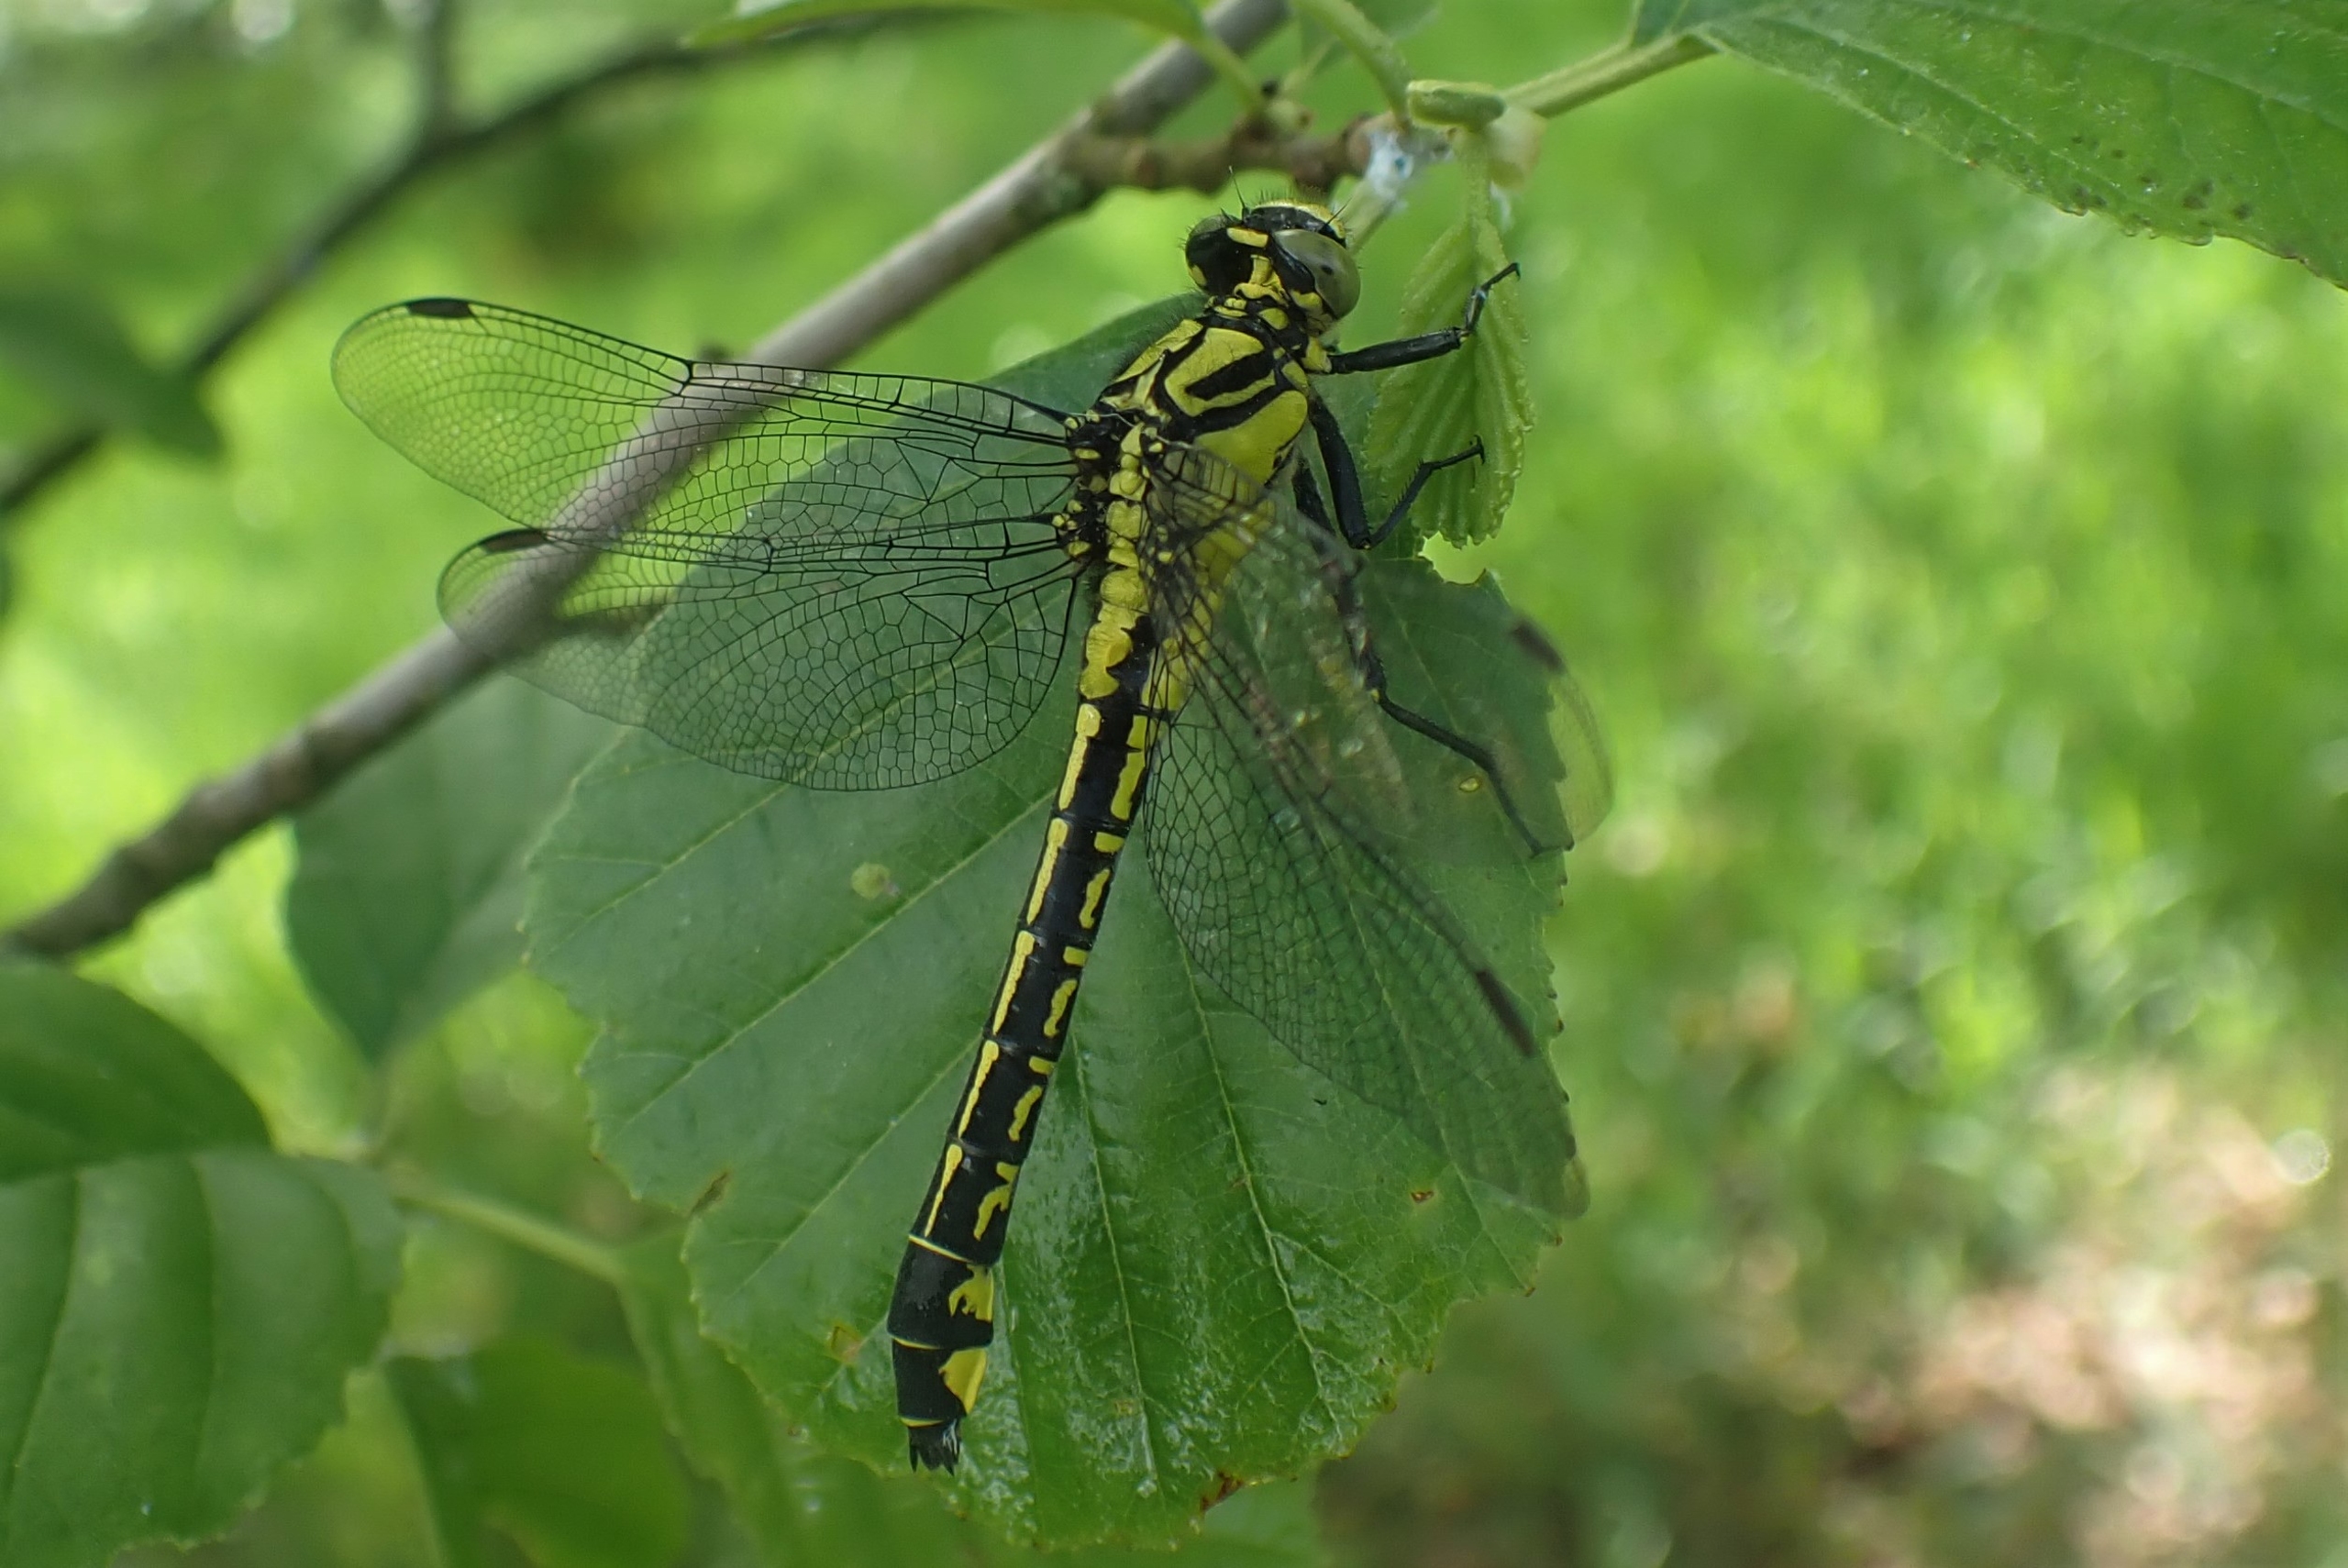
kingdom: Animalia
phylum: Arthropoda
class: Insecta
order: Odonata
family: Gomphidae
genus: Gomphus
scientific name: Gomphus vulgatissimus
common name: Almindelig flodguldsmed
